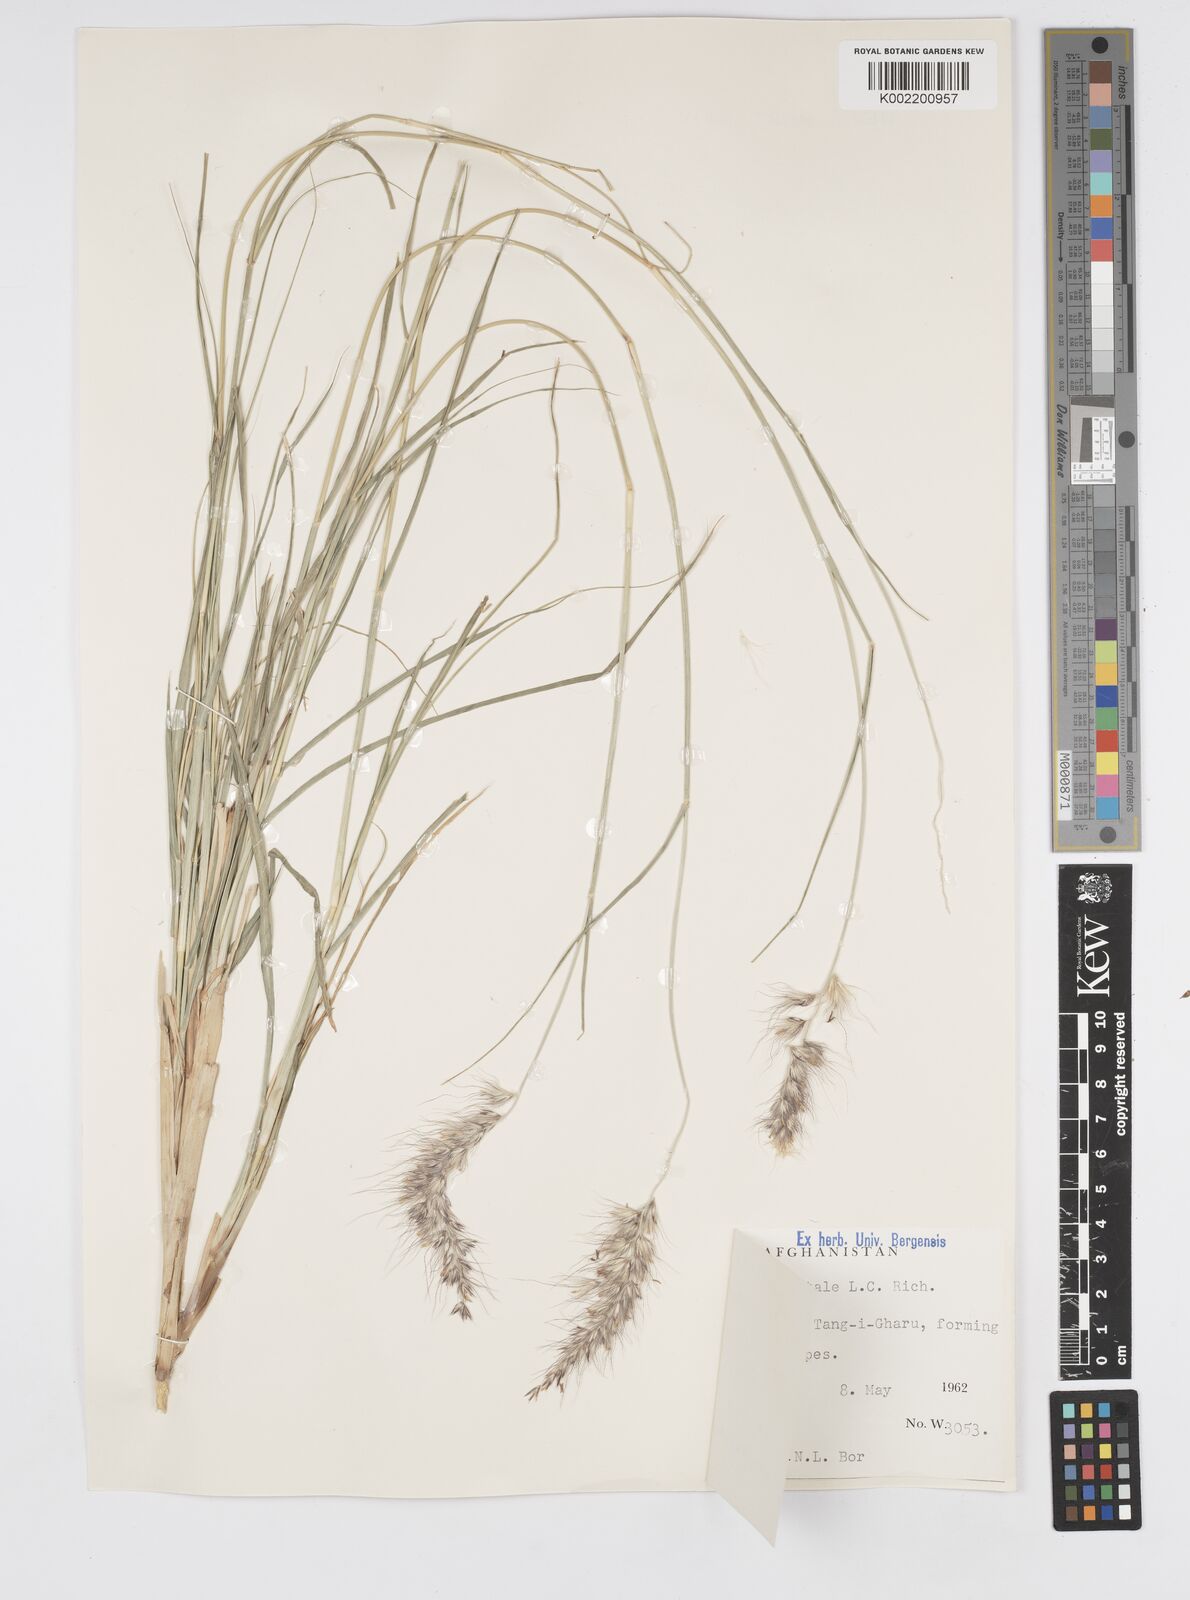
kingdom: Plantae
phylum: Tracheophyta
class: Liliopsida
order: Poales
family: Poaceae
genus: Cenchrus
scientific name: Cenchrus orientalis
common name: Oriental fountain grass
